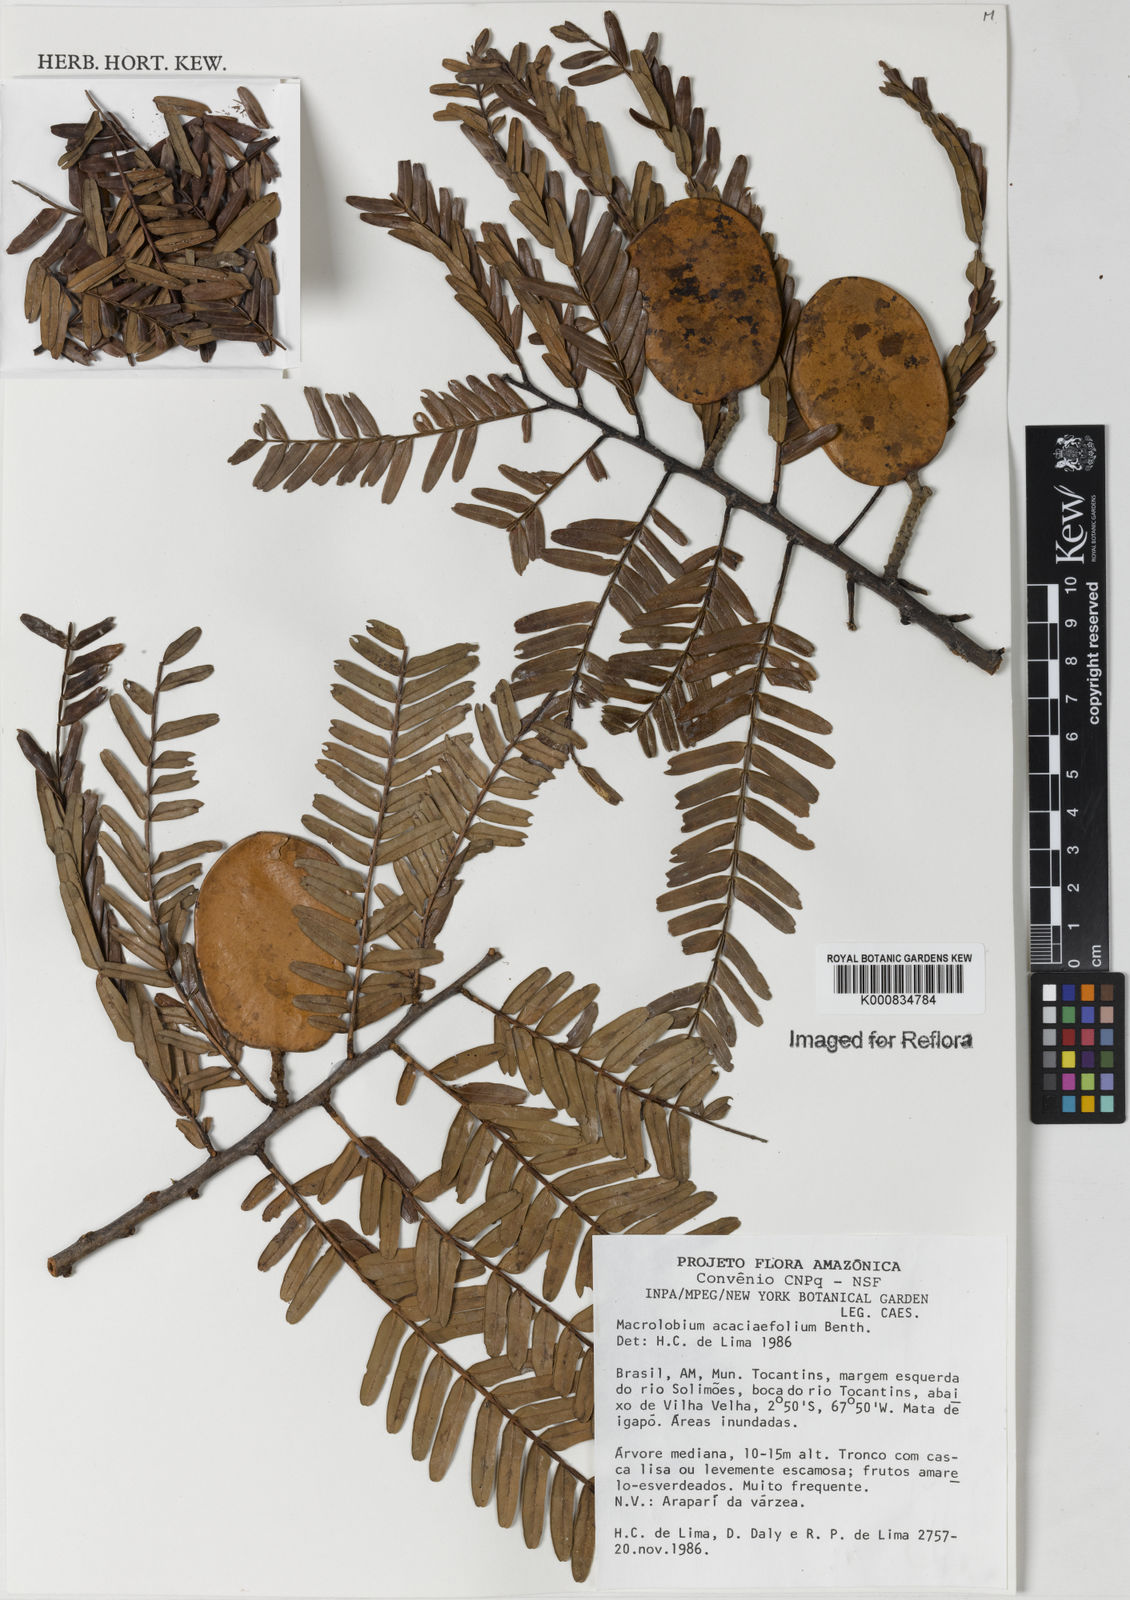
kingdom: Plantae
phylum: Tracheophyta
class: Magnoliopsida
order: Fabales
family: Fabaceae
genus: Macrolobium
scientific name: Macrolobium acaciifolium
